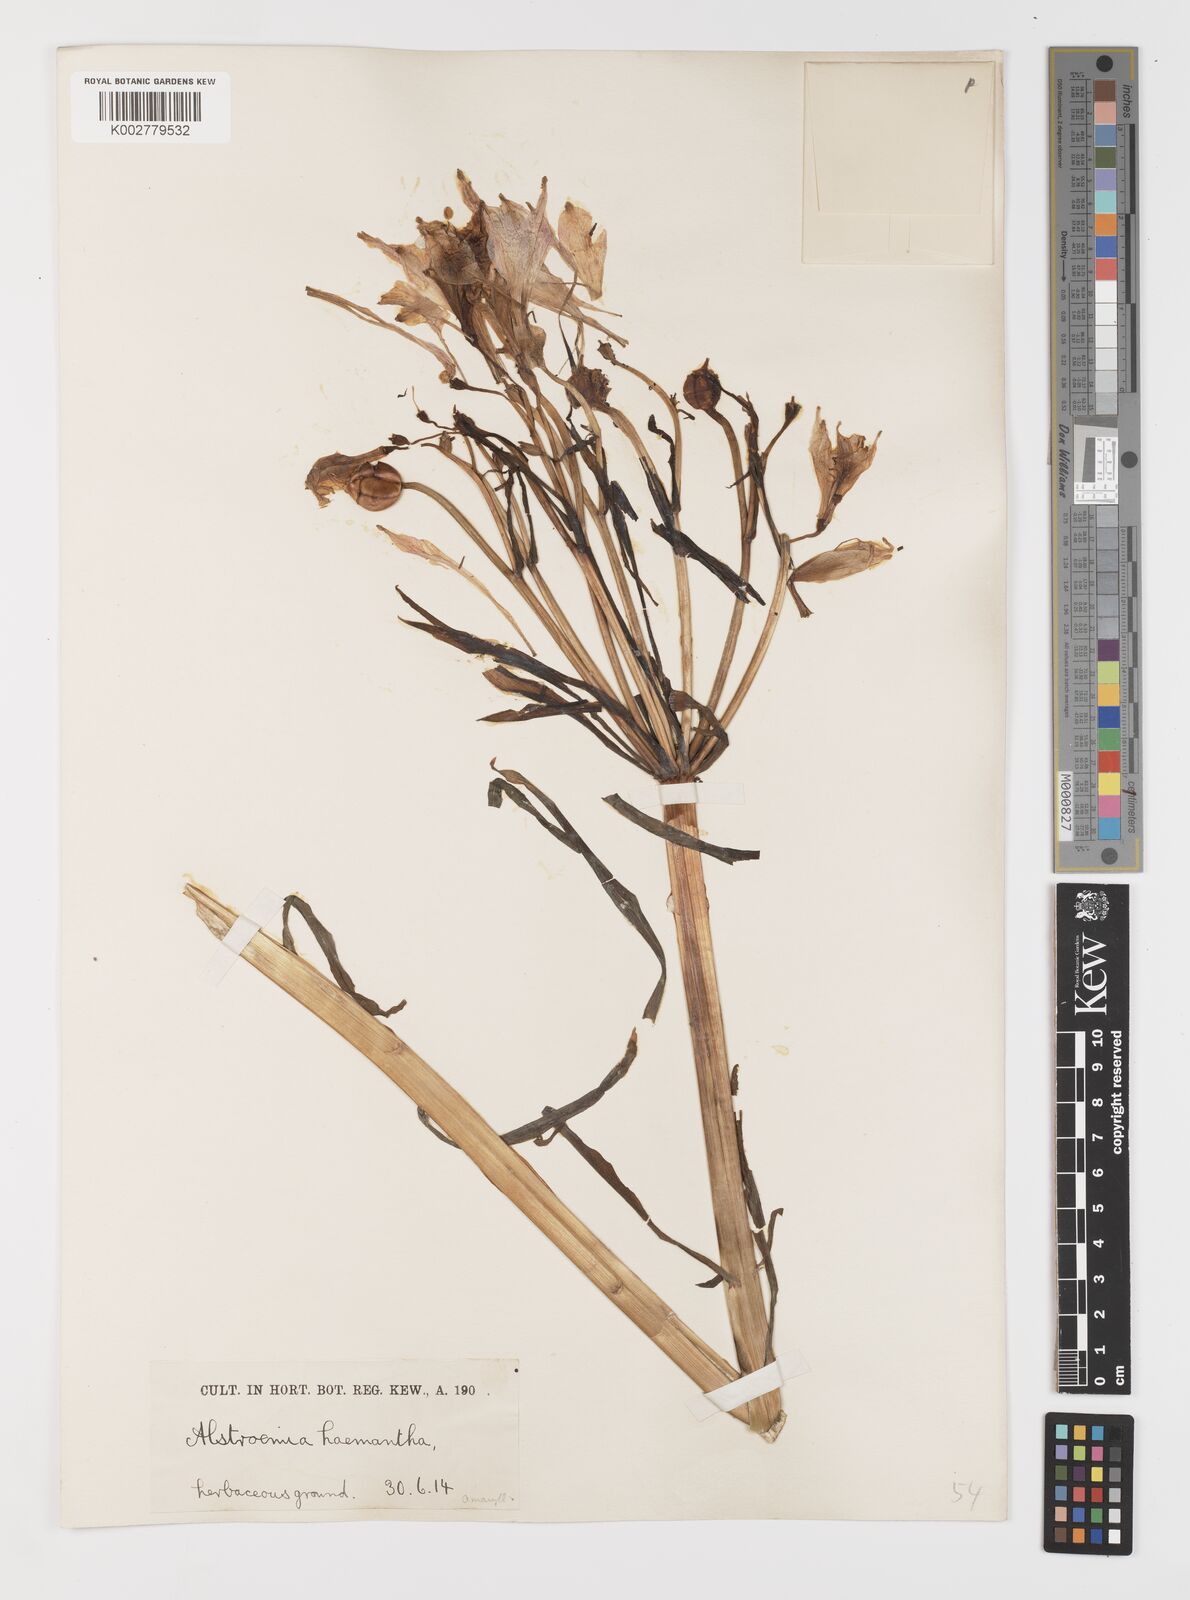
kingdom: Plantae
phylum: Tracheophyta
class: Liliopsida
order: Liliales
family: Alstroemeriaceae
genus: Alstroemeria
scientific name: Alstroemeria ligtu
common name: St. martin's-flower
